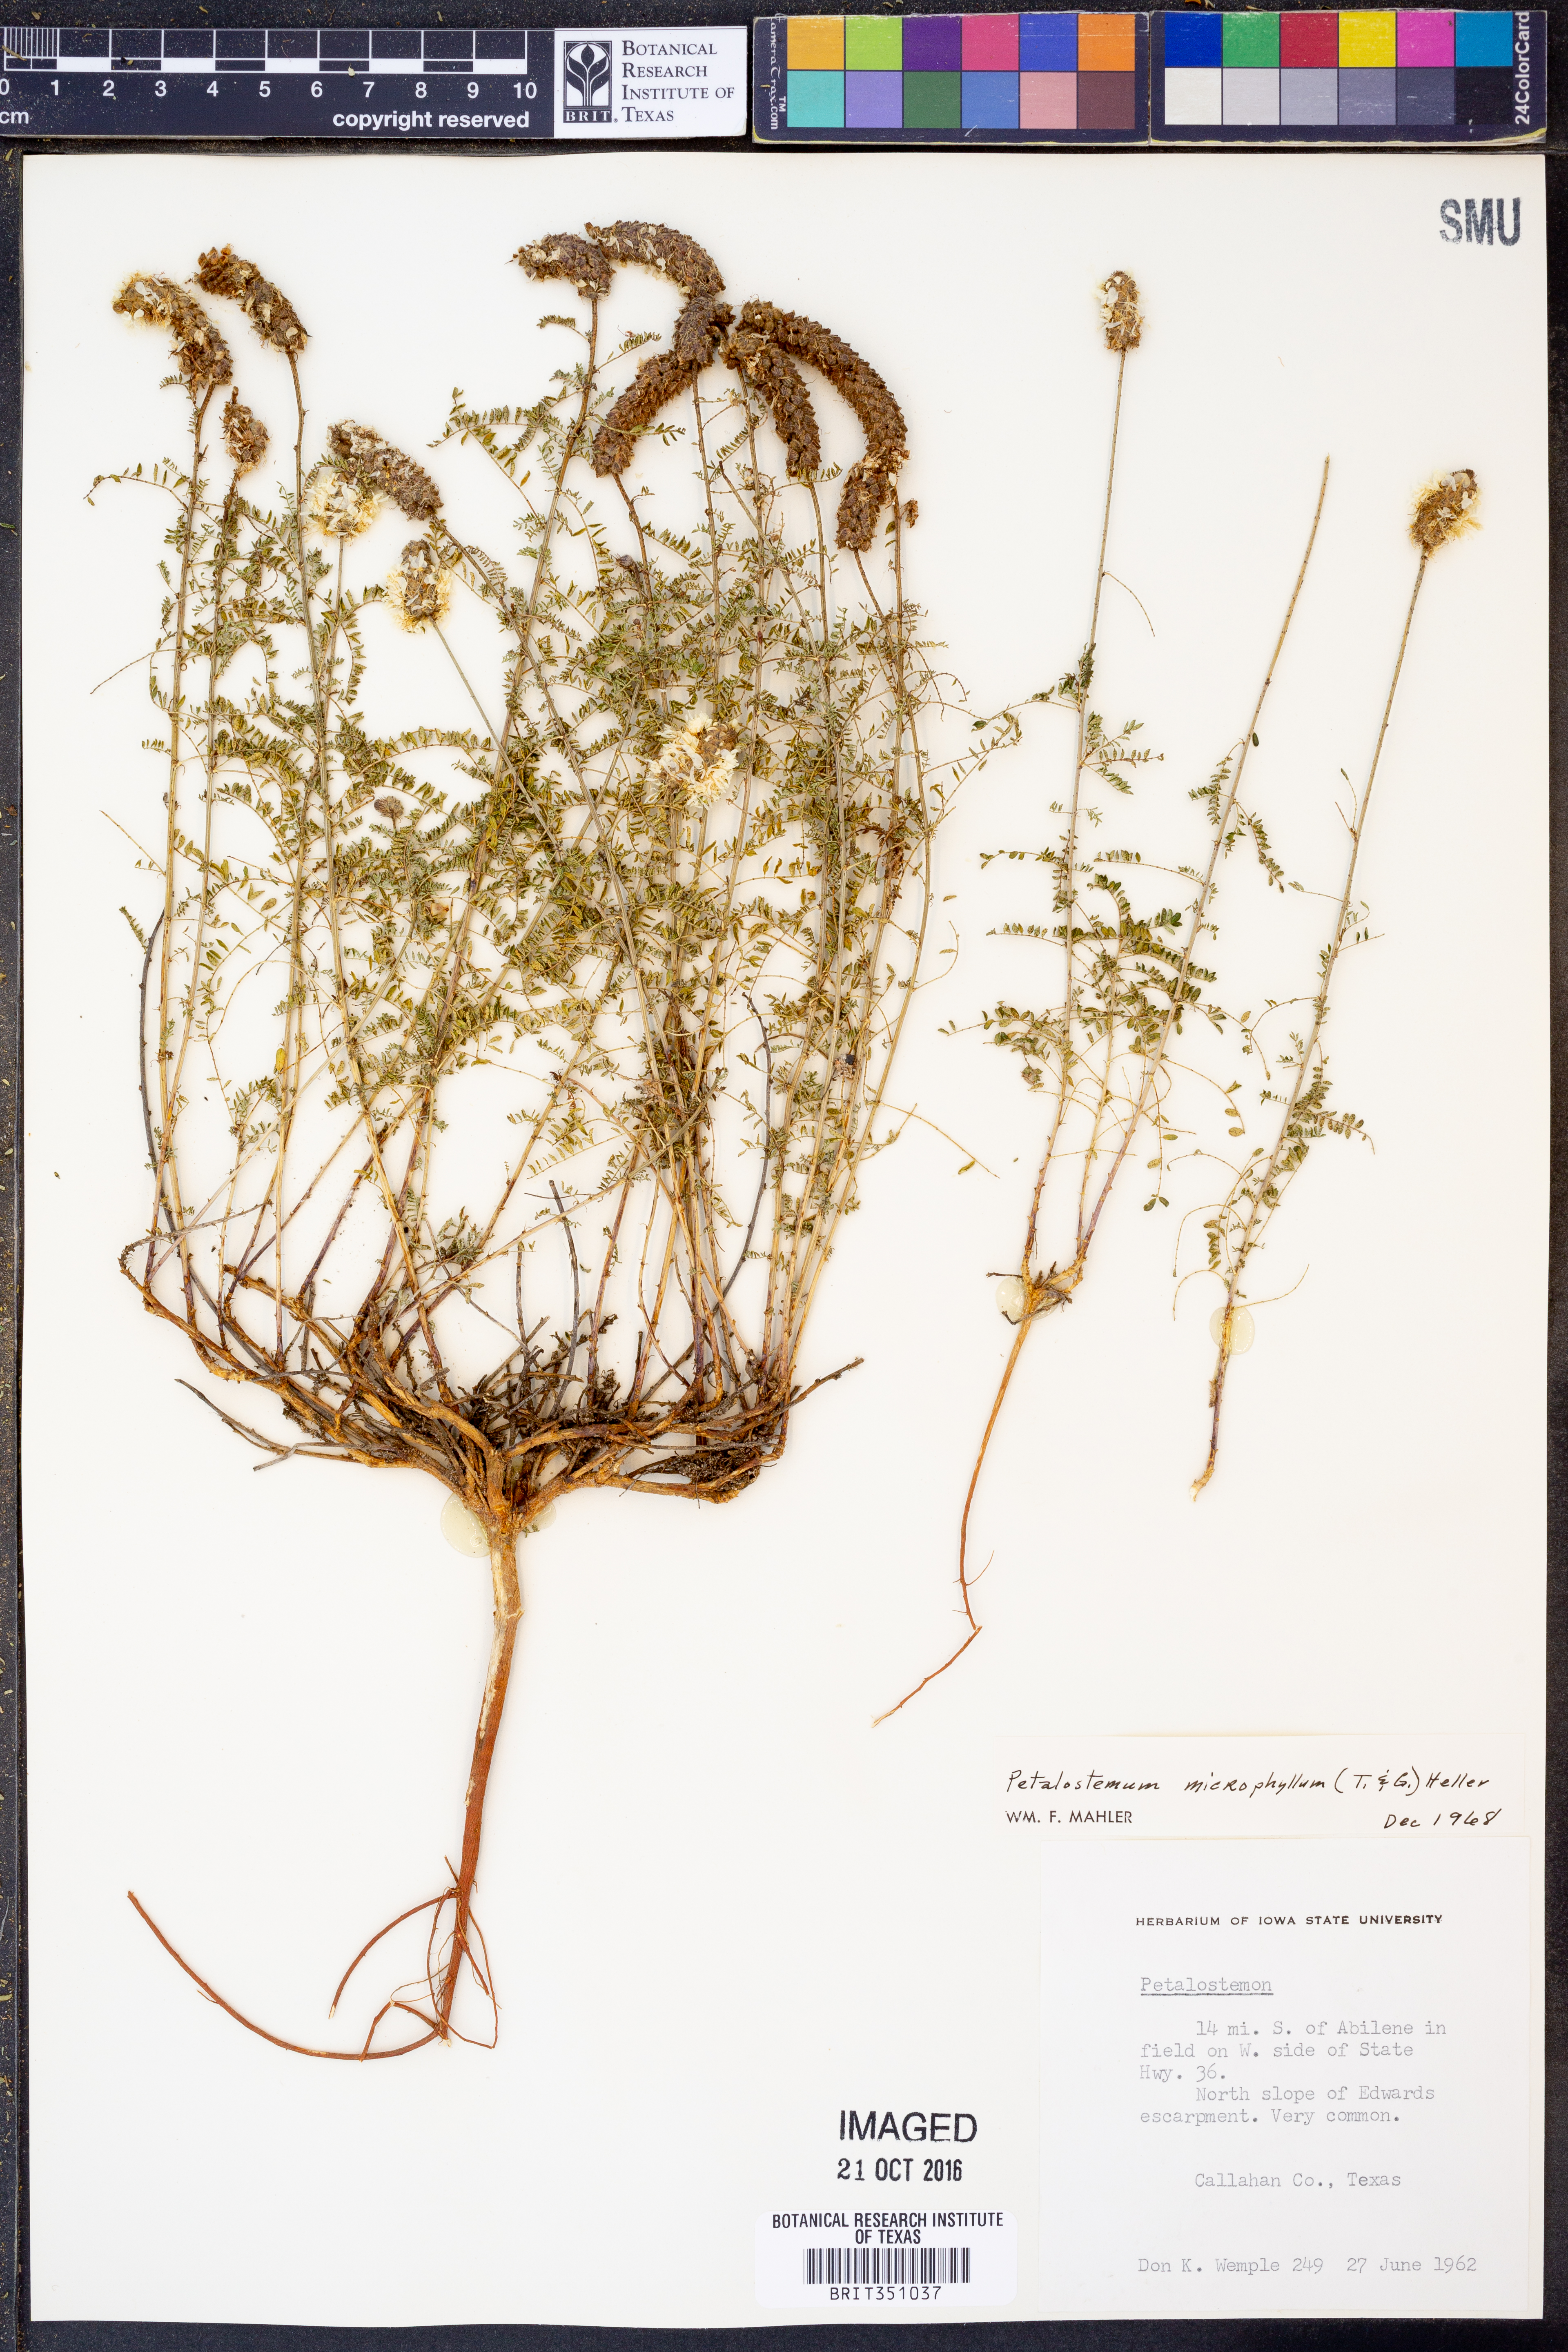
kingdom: Plantae
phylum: Tracheophyta
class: Magnoliopsida
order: Fabales
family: Fabaceae
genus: Dalea
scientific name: Dalea drummondiana
